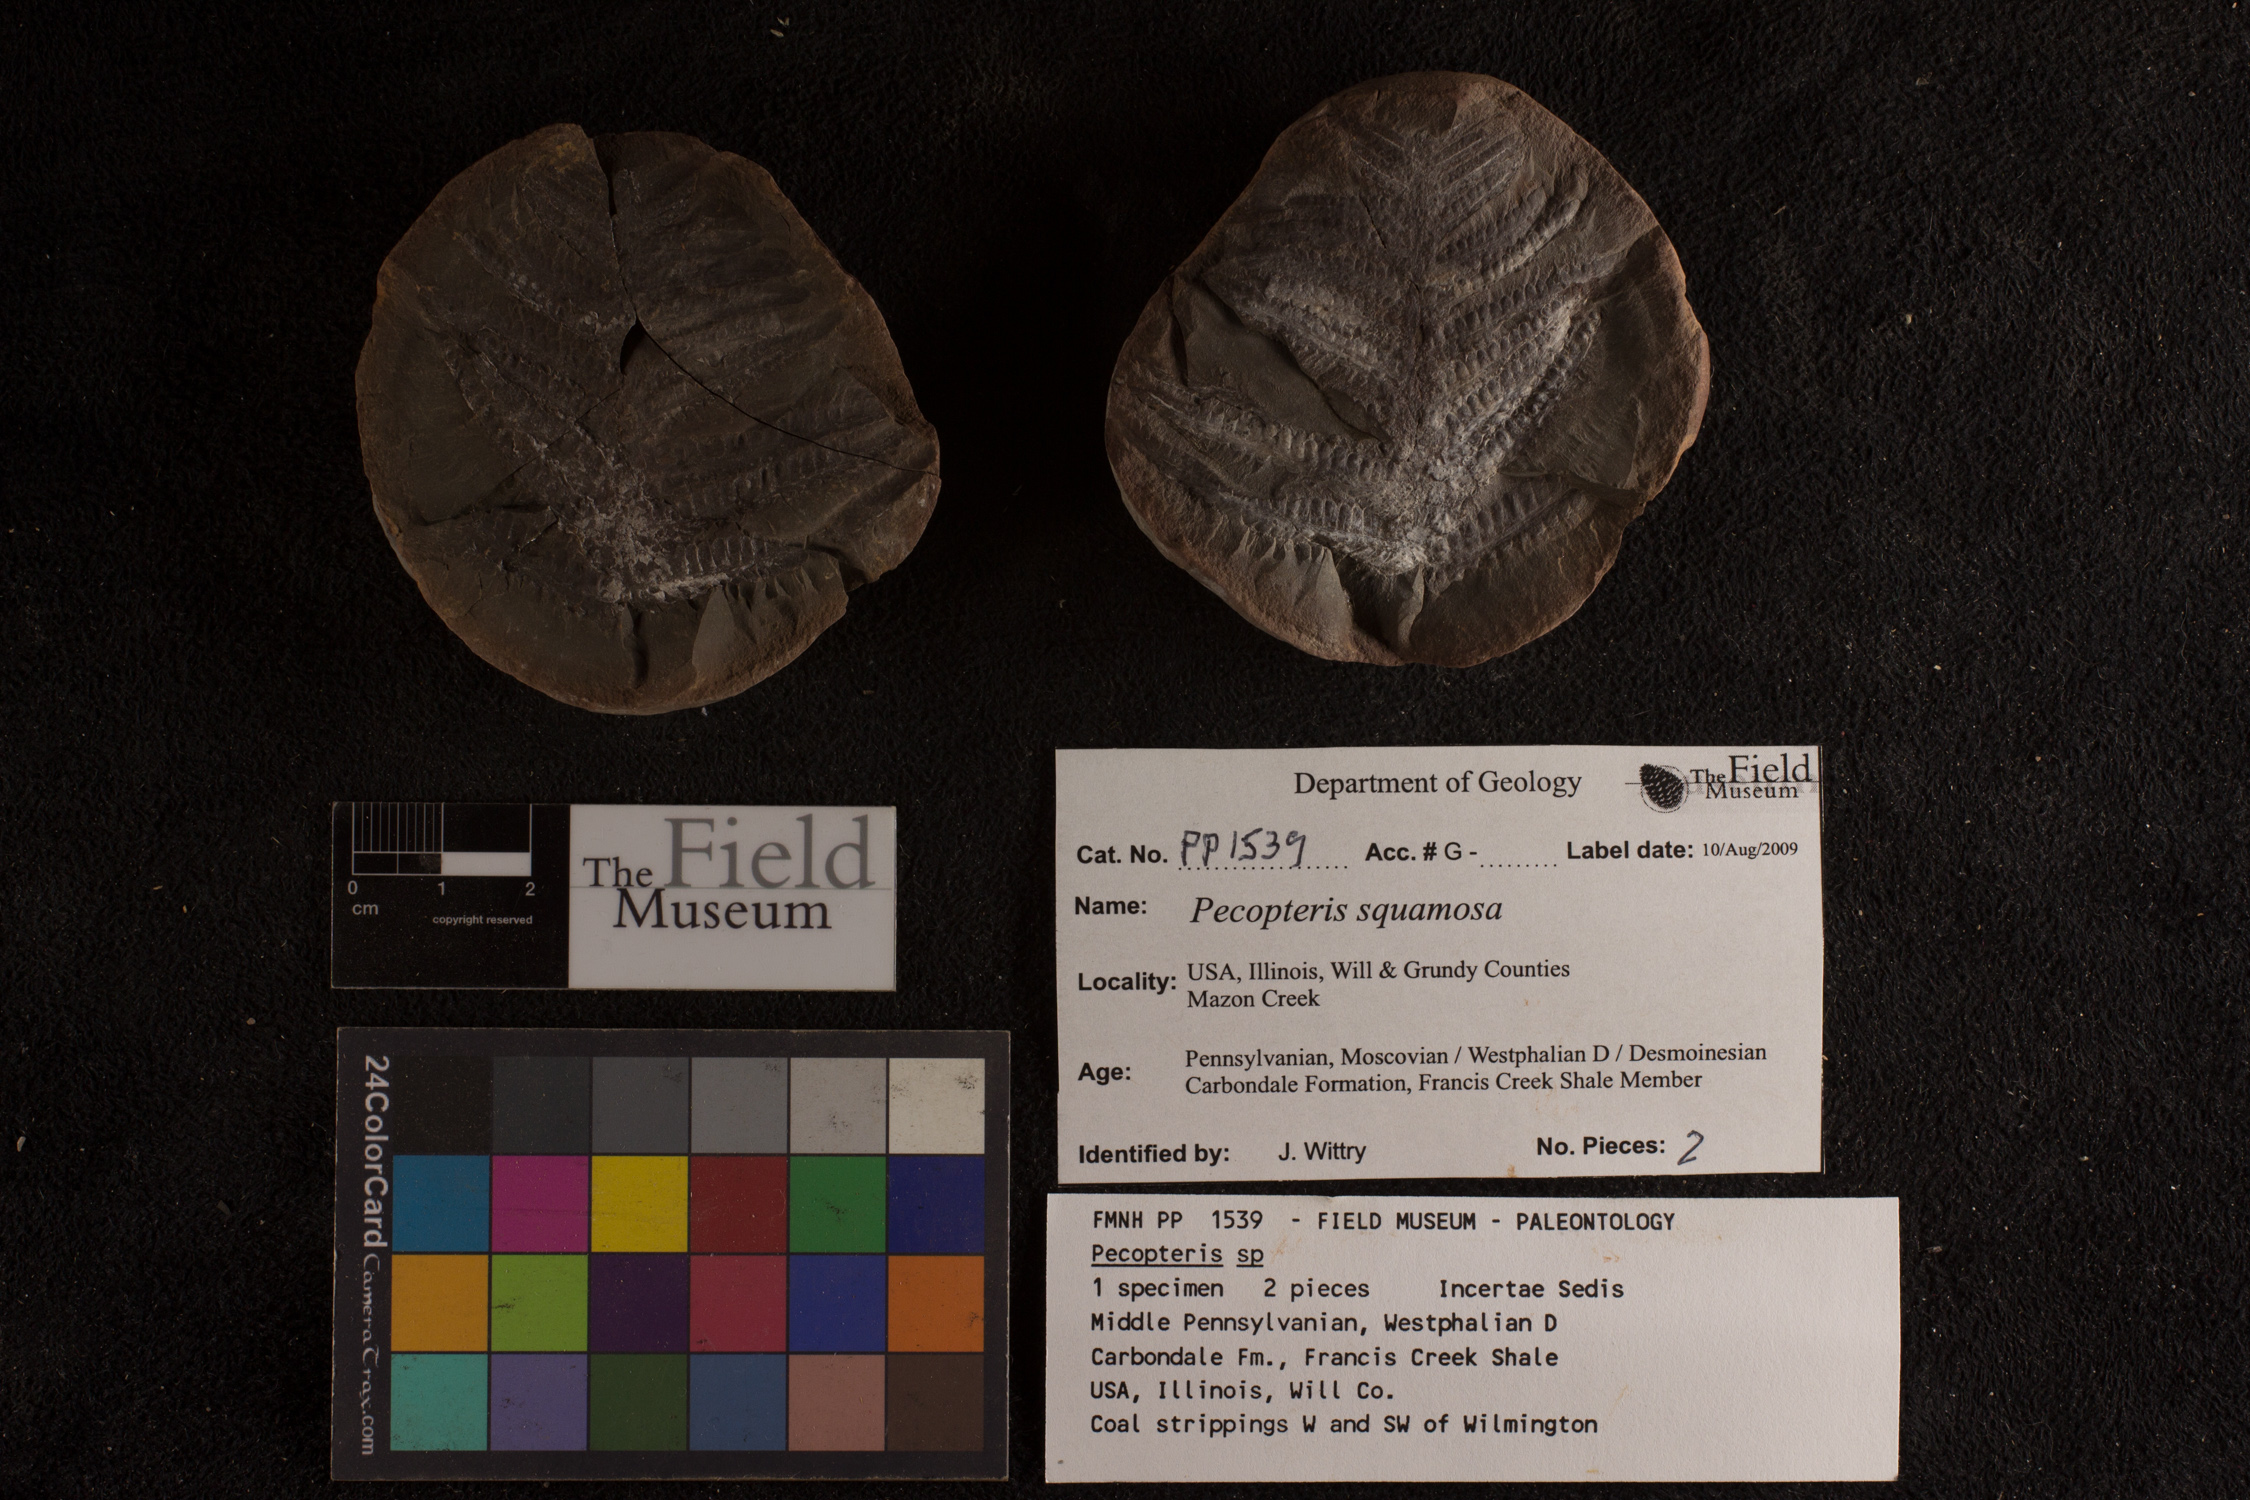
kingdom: Plantae
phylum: Tracheophyta
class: Polypodiopsida
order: Marattiales
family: Asterothecaceae
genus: Pecopteris
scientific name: Pecopteris
